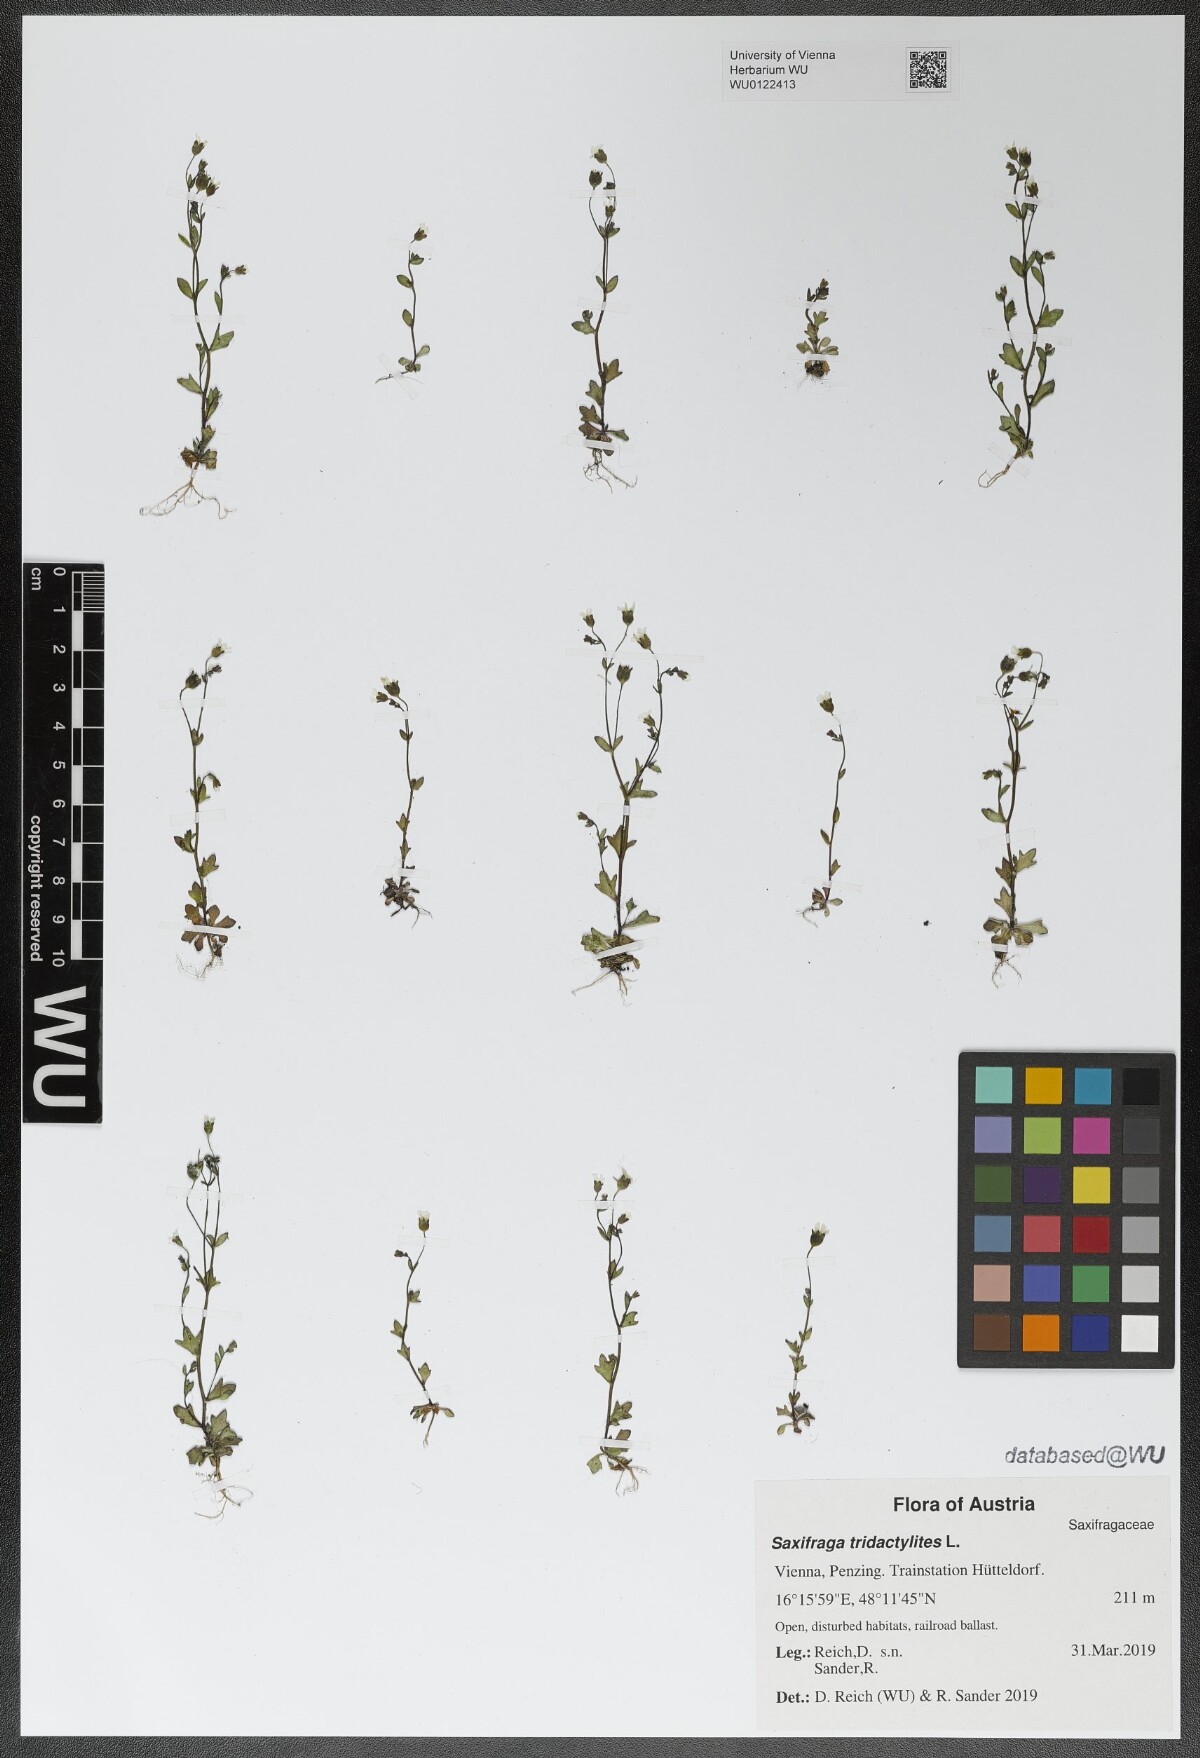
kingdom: Plantae
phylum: Tracheophyta
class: Magnoliopsida
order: Saxifragales
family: Saxifragaceae
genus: Saxifraga
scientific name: Saxifraga tridactylites
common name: Rue-leaved saxifrage
